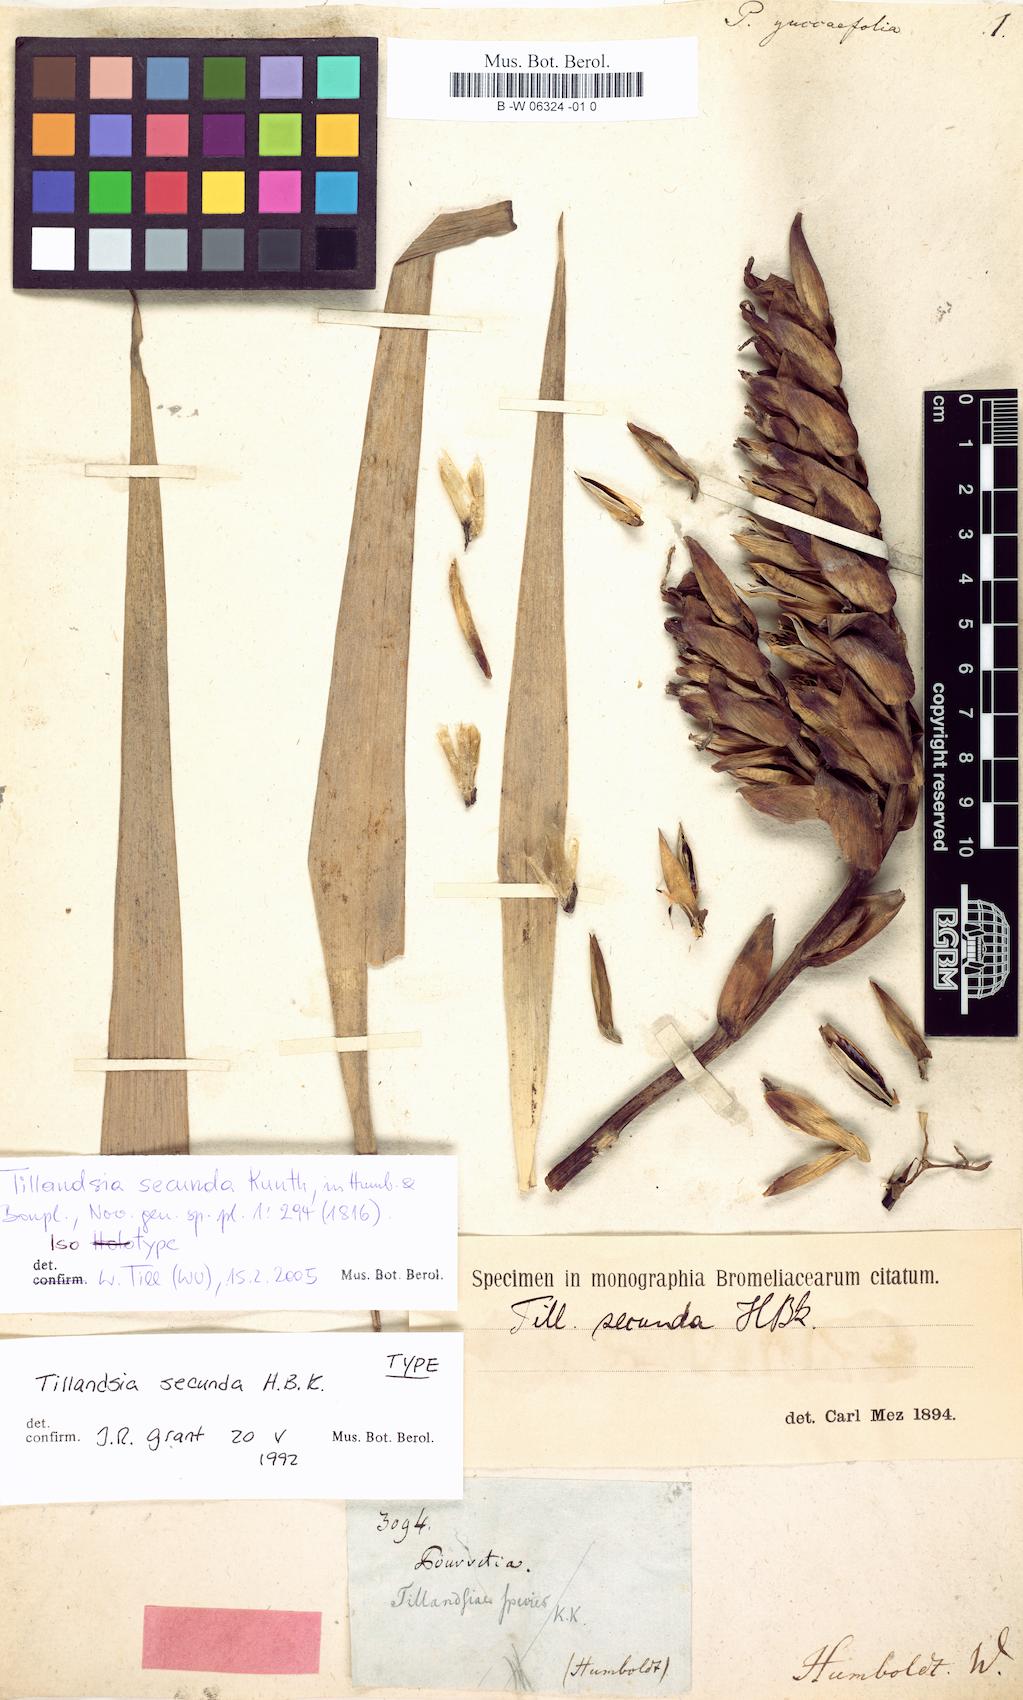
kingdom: Plantae
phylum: Tracheophyta
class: Liliopsida
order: Poales
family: Bromeliaceae
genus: Pitcairnia
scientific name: Pitcairnia
